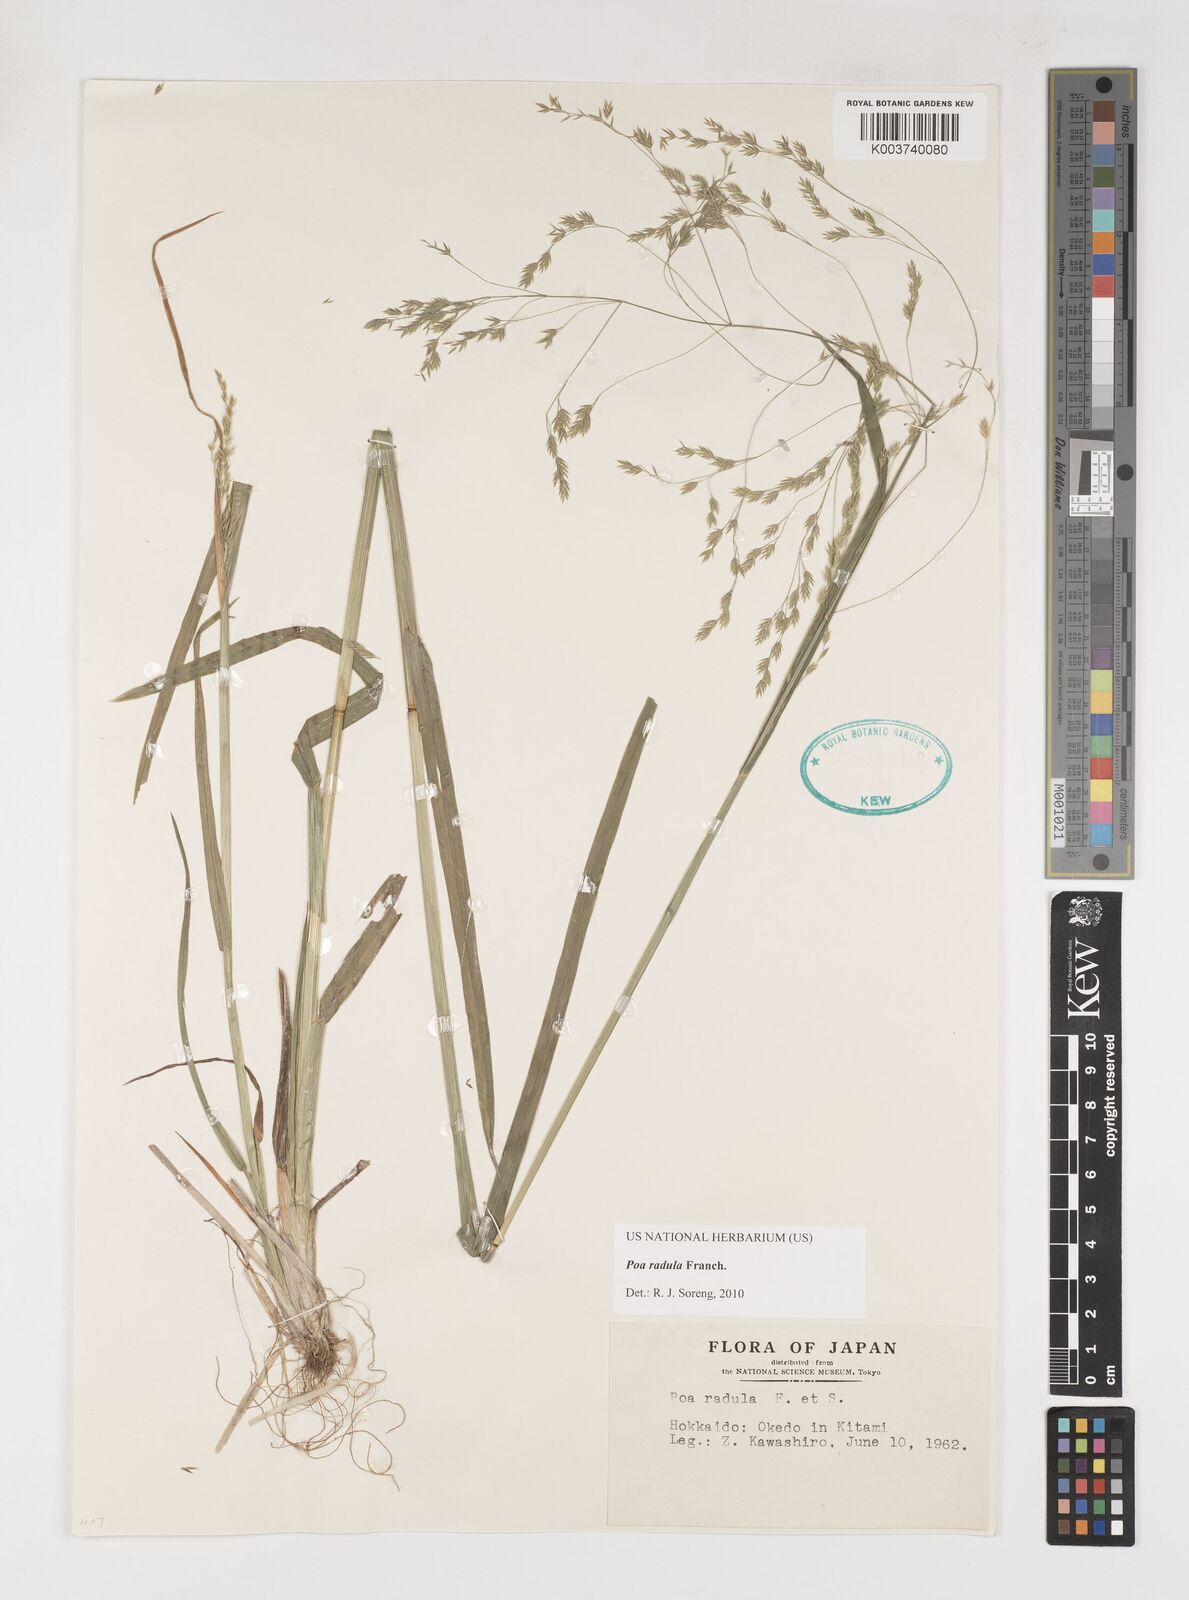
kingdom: Plantae
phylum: Tracheophyta
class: Liliopsida
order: Poales
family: Poaceae
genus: Poa
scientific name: Poa radula
